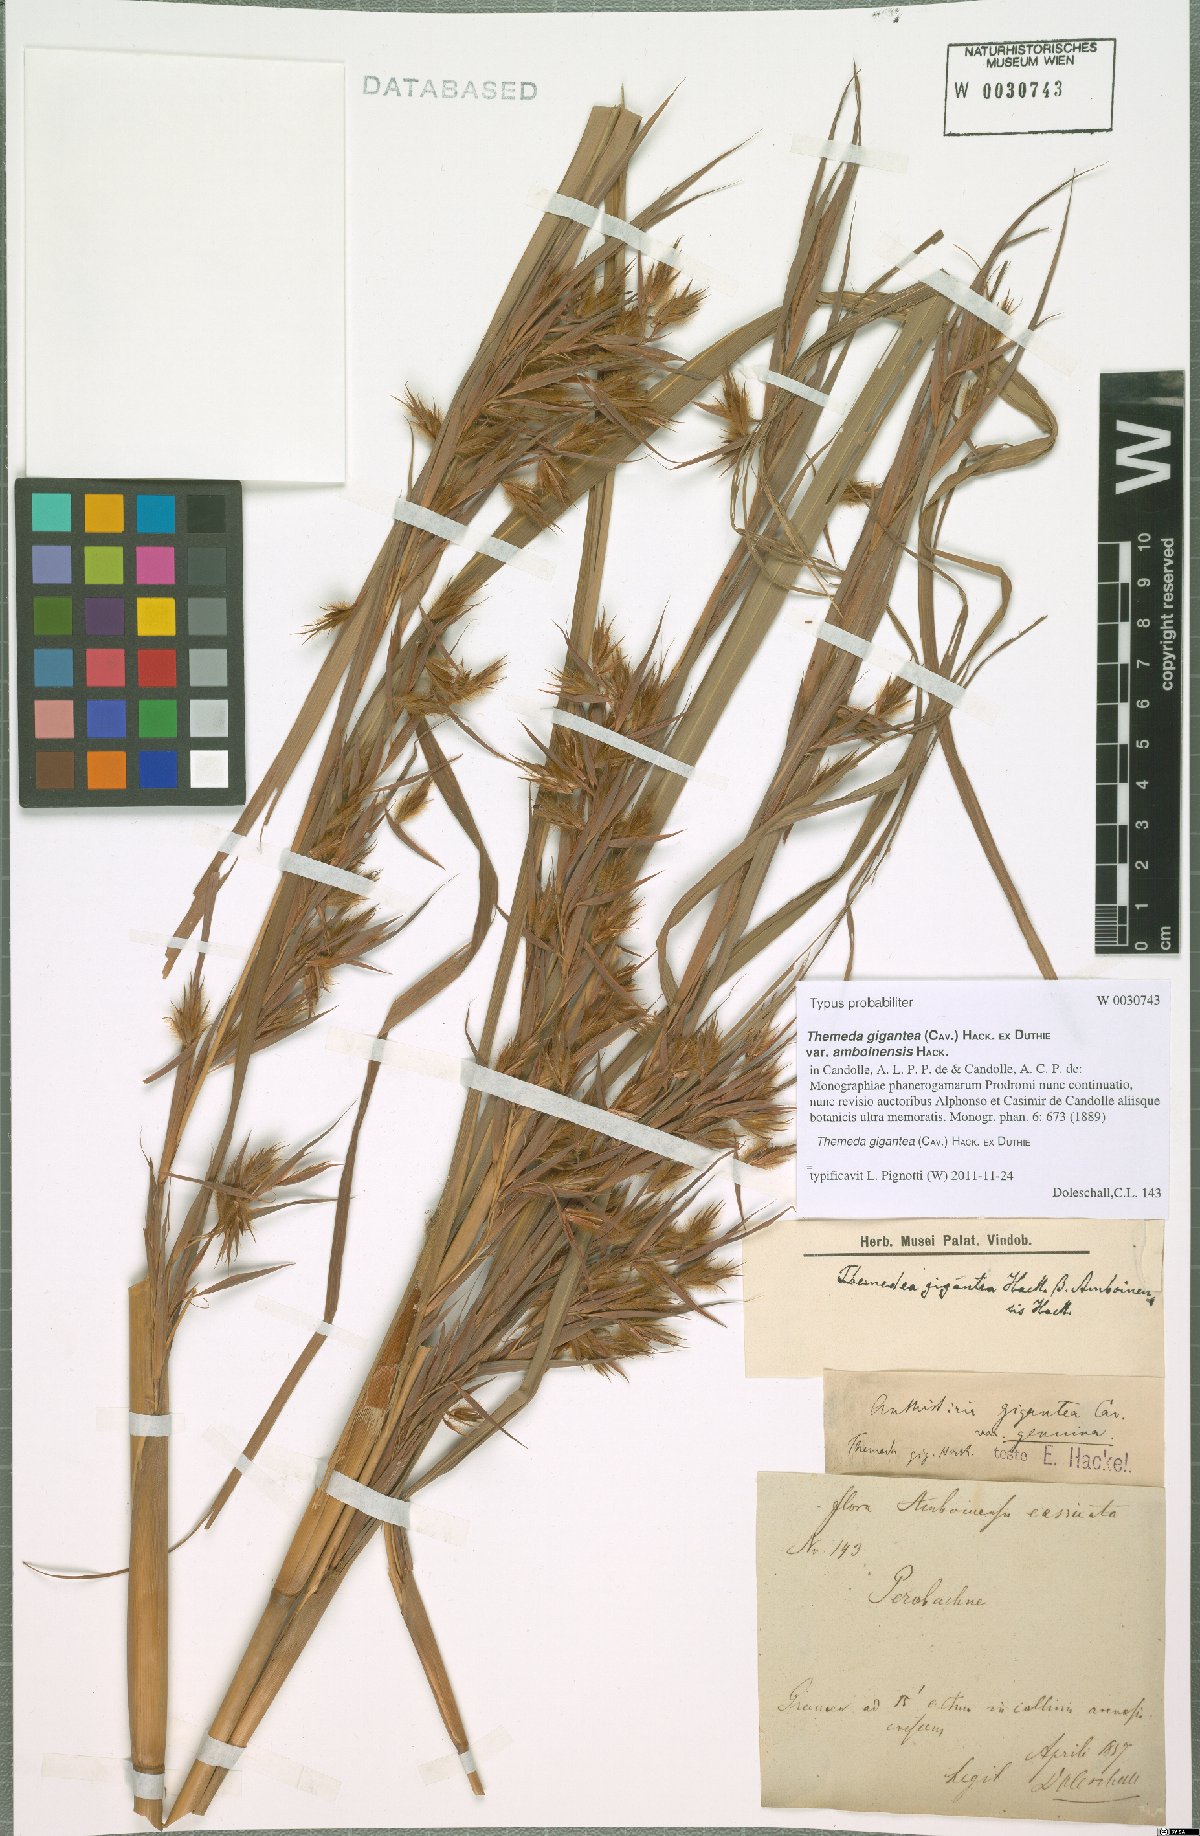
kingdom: Plantae
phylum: Tracheophyta
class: Liliopsida
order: Poales
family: Poaceae
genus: Themeda
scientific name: Themeda gigantea
